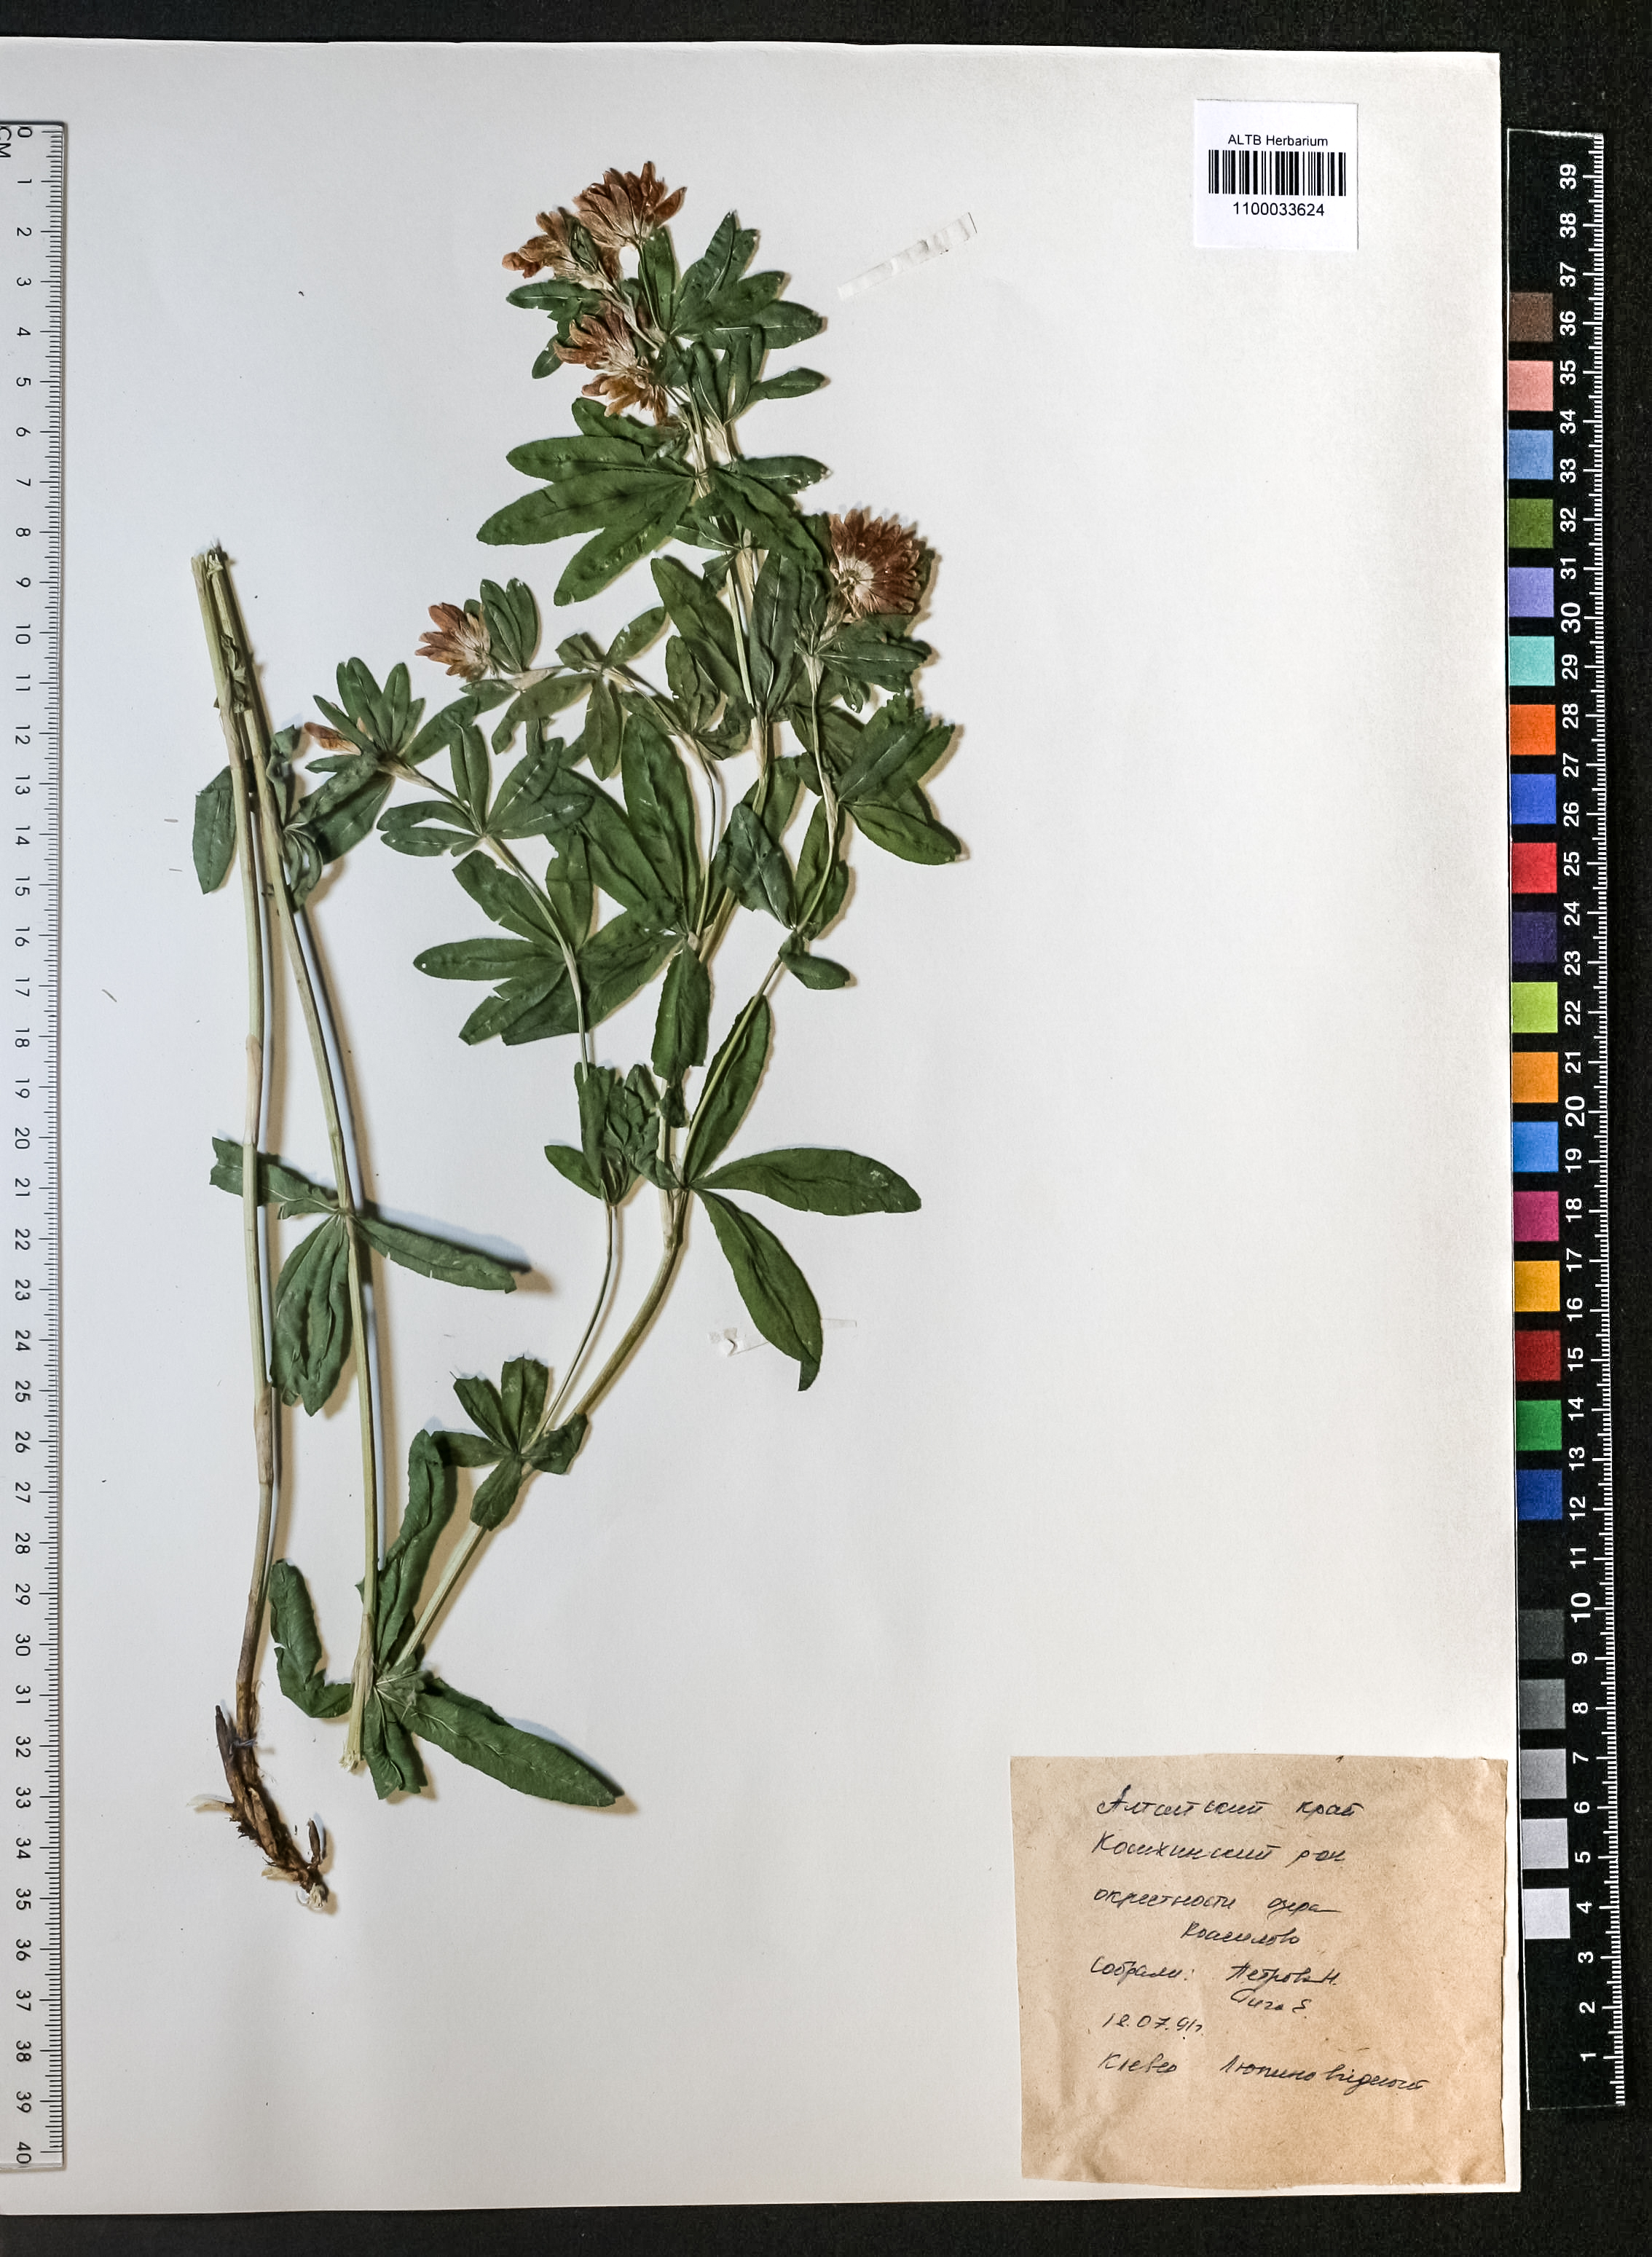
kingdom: Plantae
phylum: Tracheophyta
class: Magnoliopsida
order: Fabales
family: Fabaceae
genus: Trifolium
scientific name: Trifolium lupinaster
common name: Lupine clover
